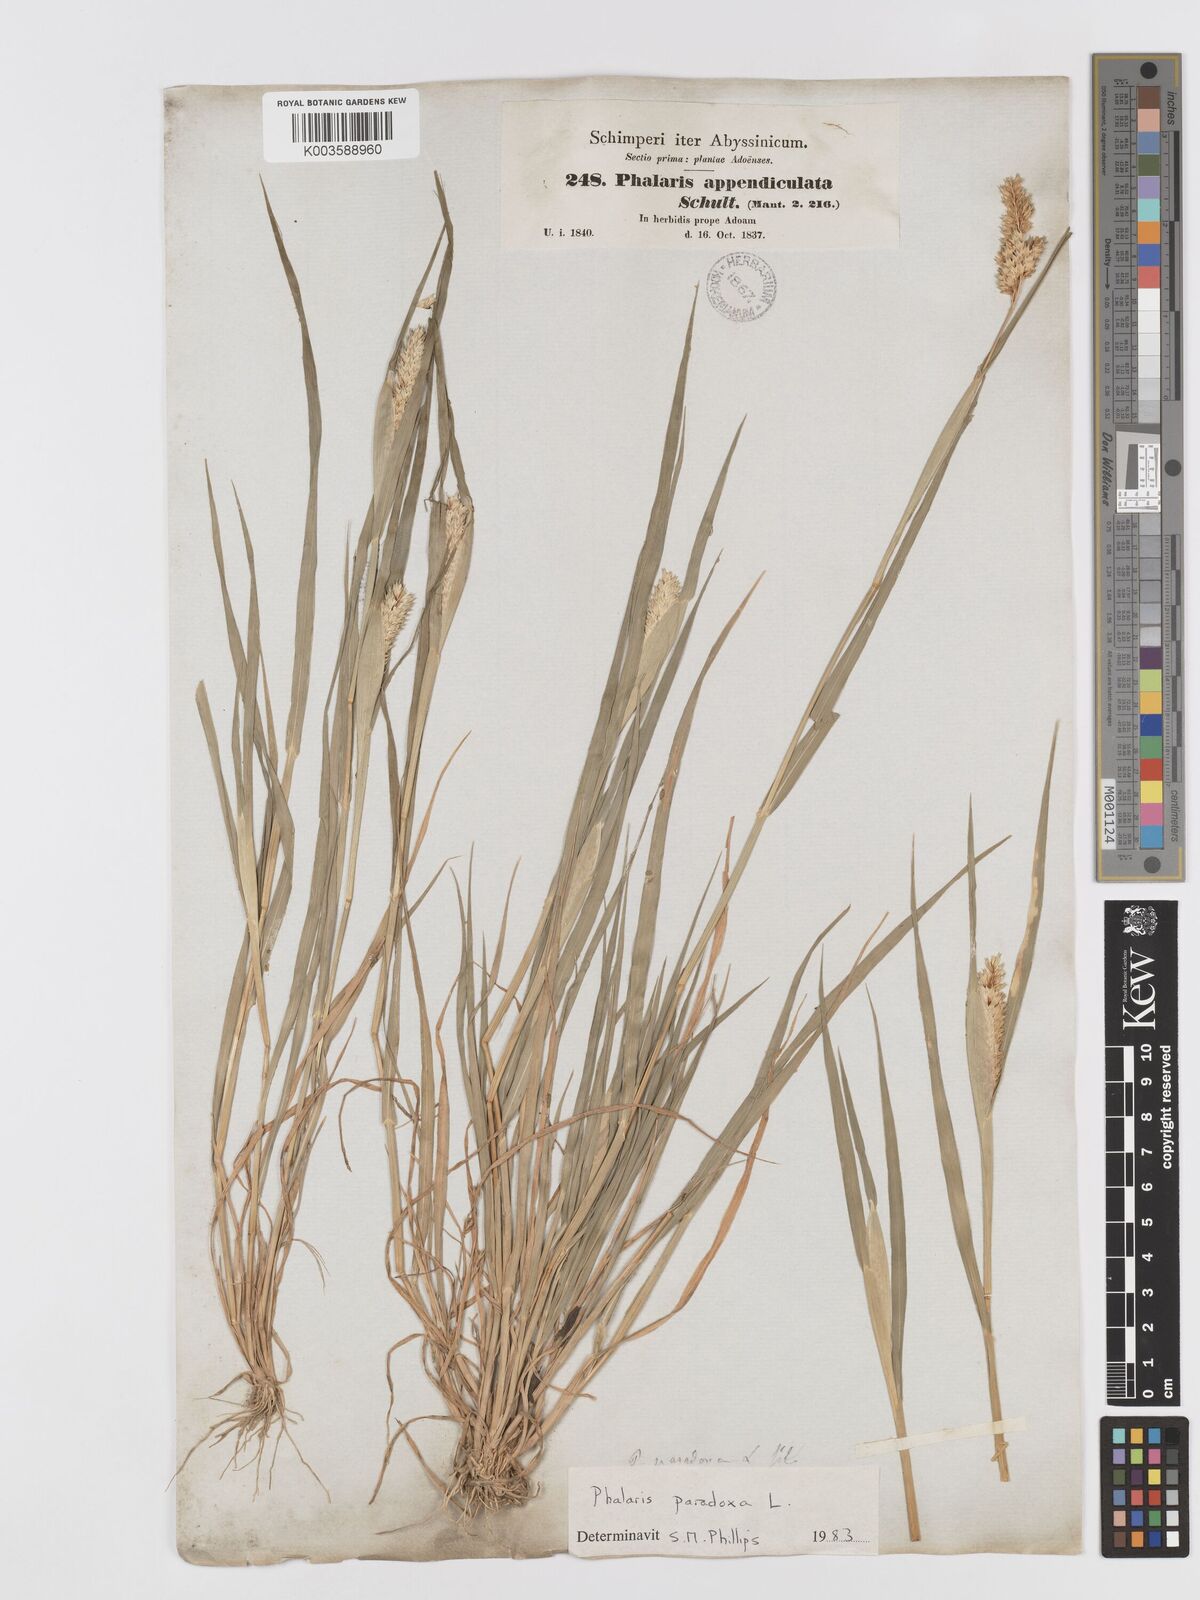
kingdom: Plantae
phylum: Tracheophyta
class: Liliopsida
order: Poales
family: Poaceae
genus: Phalaris
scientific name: Phalaris paradoxa
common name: Awned canary-grass
